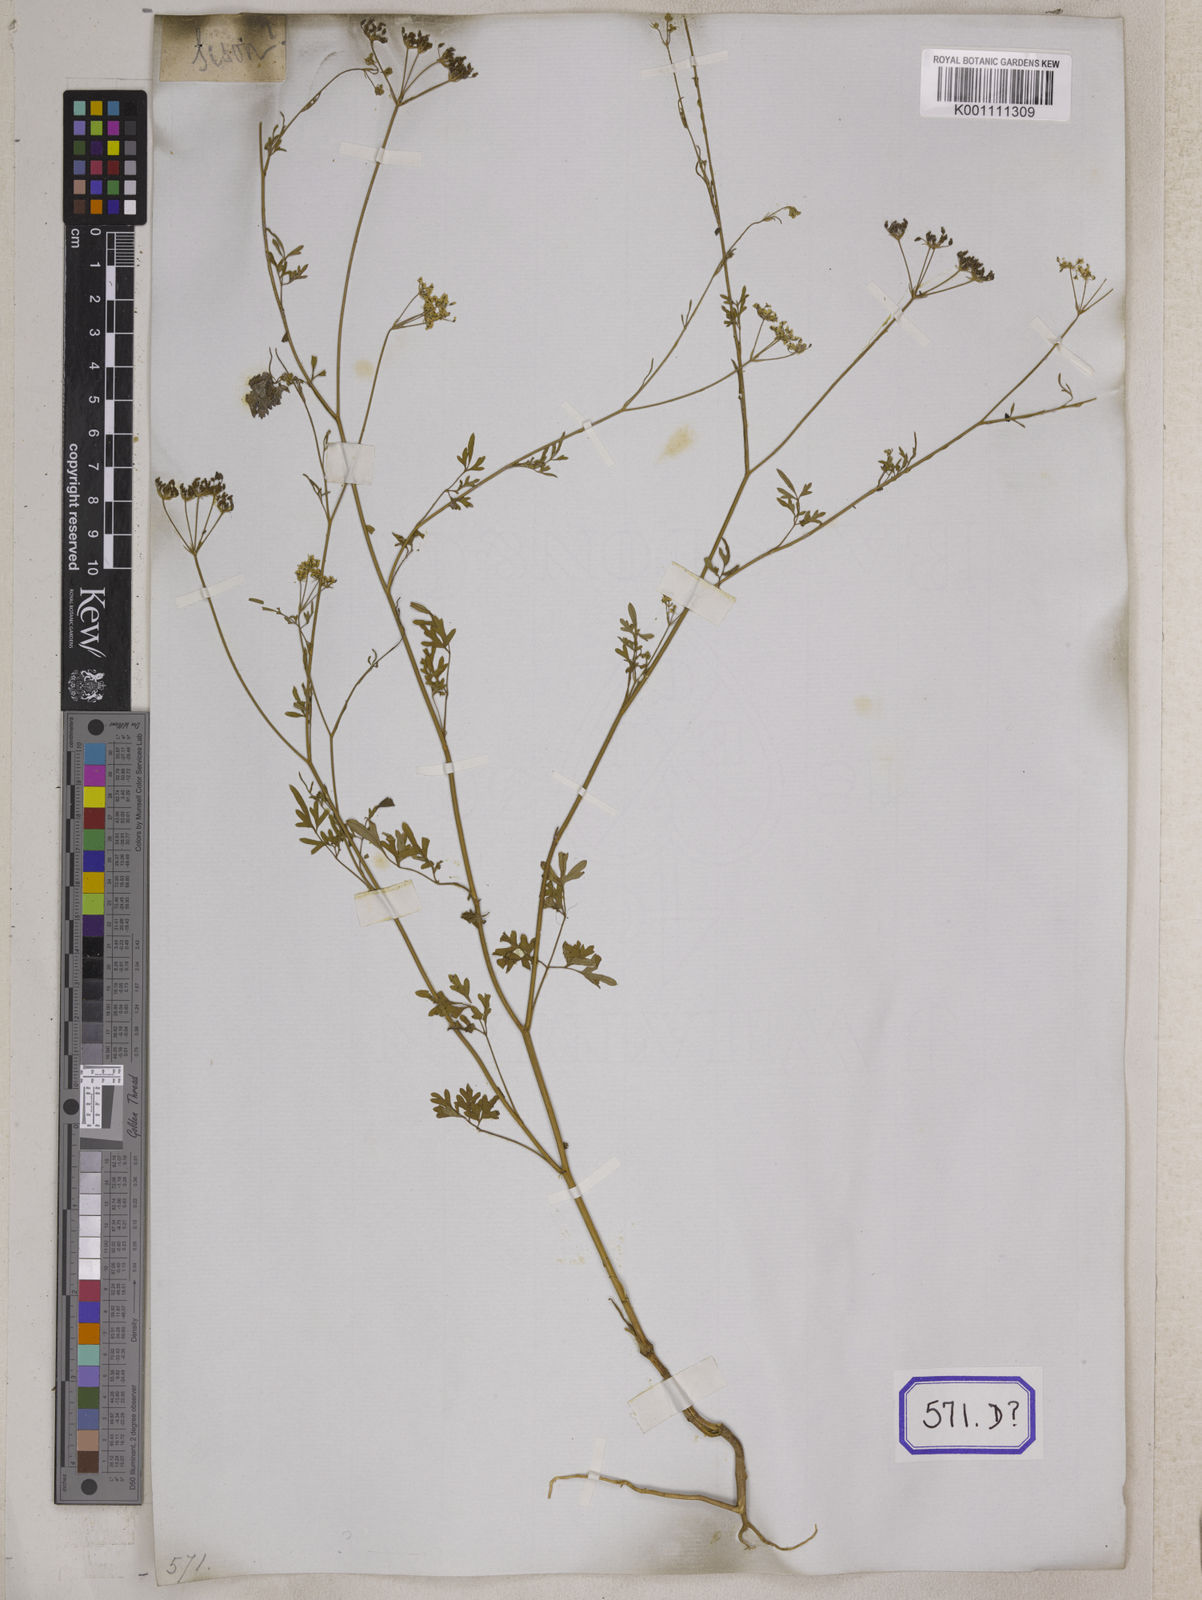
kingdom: Plantae
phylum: Tracheophyta
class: Magnoliopsida
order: Apiales
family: Apiaceae
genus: Psammogeton
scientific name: Psammogeton involucratum
